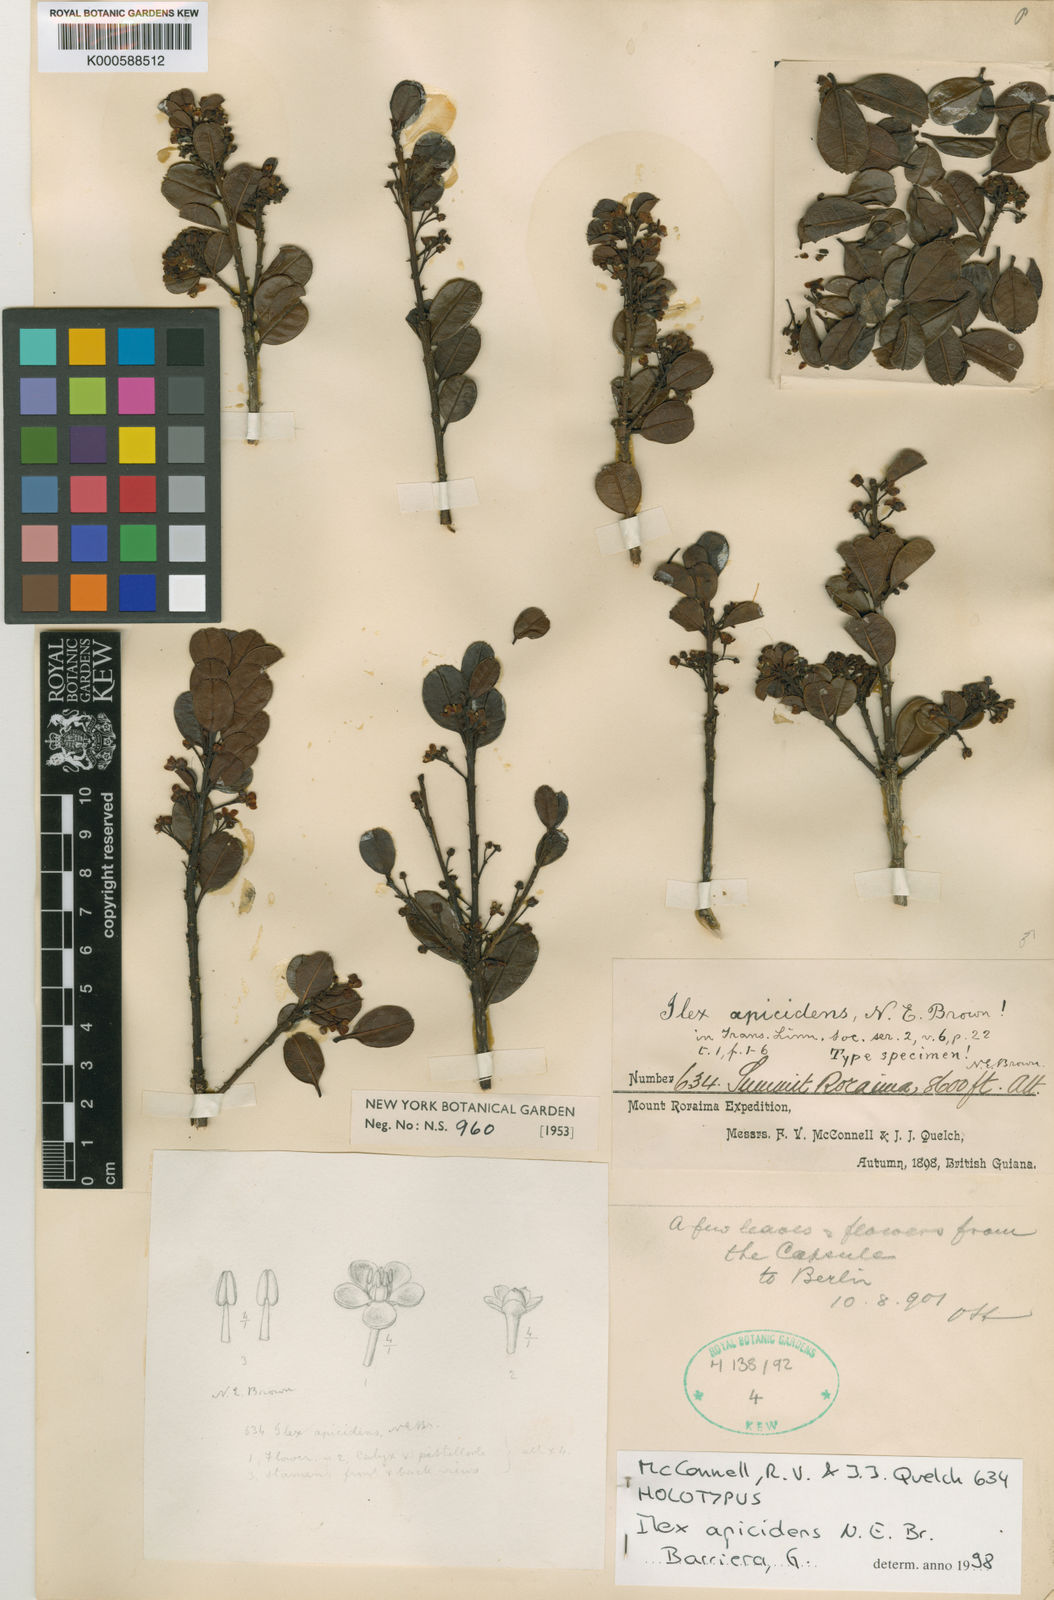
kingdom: Plantae
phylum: Tracheophyta
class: Magnoliopsida
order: Aquifoliales
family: Aquifoliaceae
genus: Ilex
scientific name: Ilex apicidens
